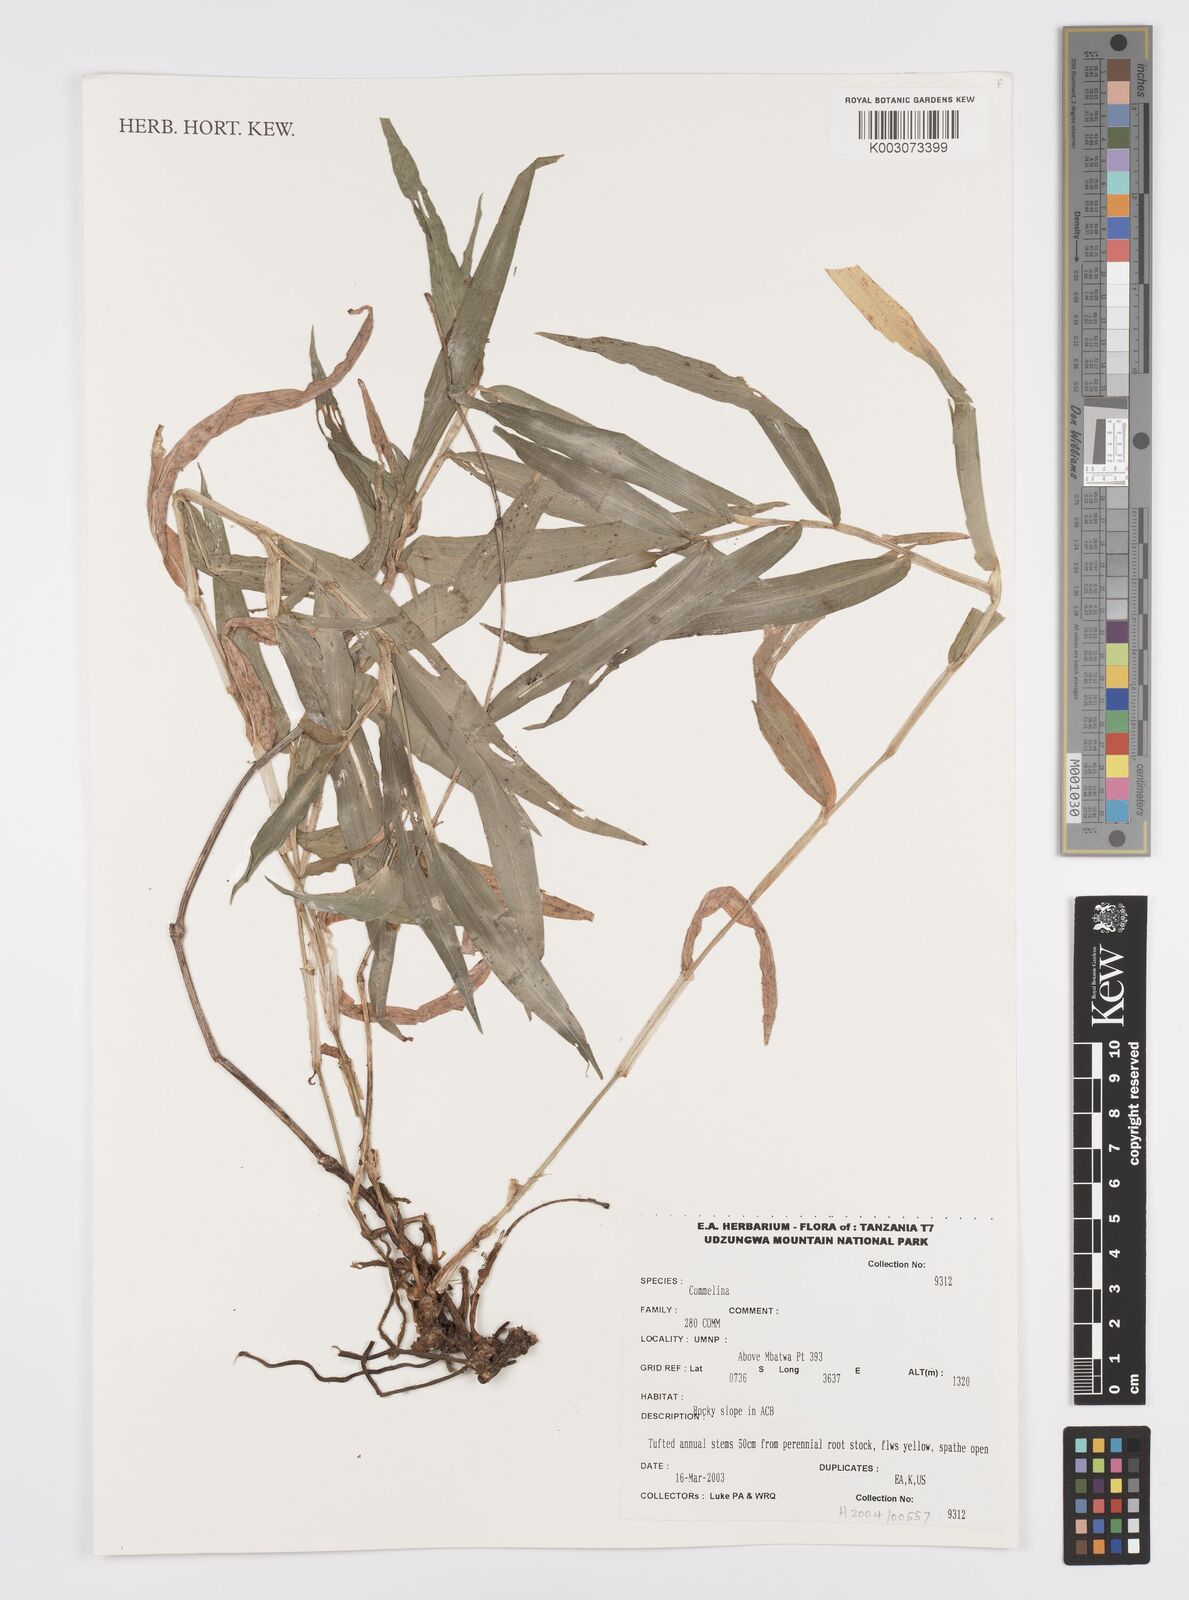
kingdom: Plantae
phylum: Tracheophyta
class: Liliopsida
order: Commelinales
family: Commelinaceae
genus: Commelina
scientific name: Commelina africana
